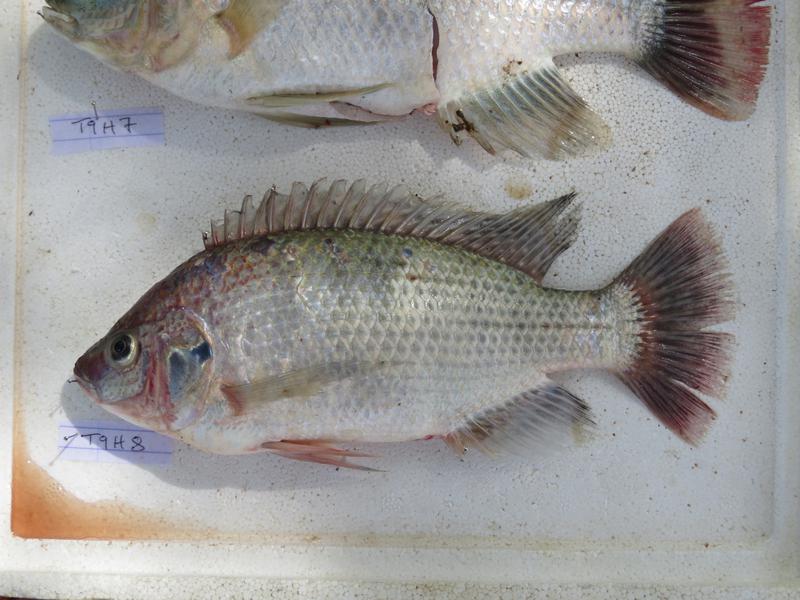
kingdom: Animalia
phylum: Chordata
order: Perciformes
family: Cichlidae
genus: Oreochromis
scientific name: Oreochromis rukwaensis
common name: Lake rukwa tilapia
